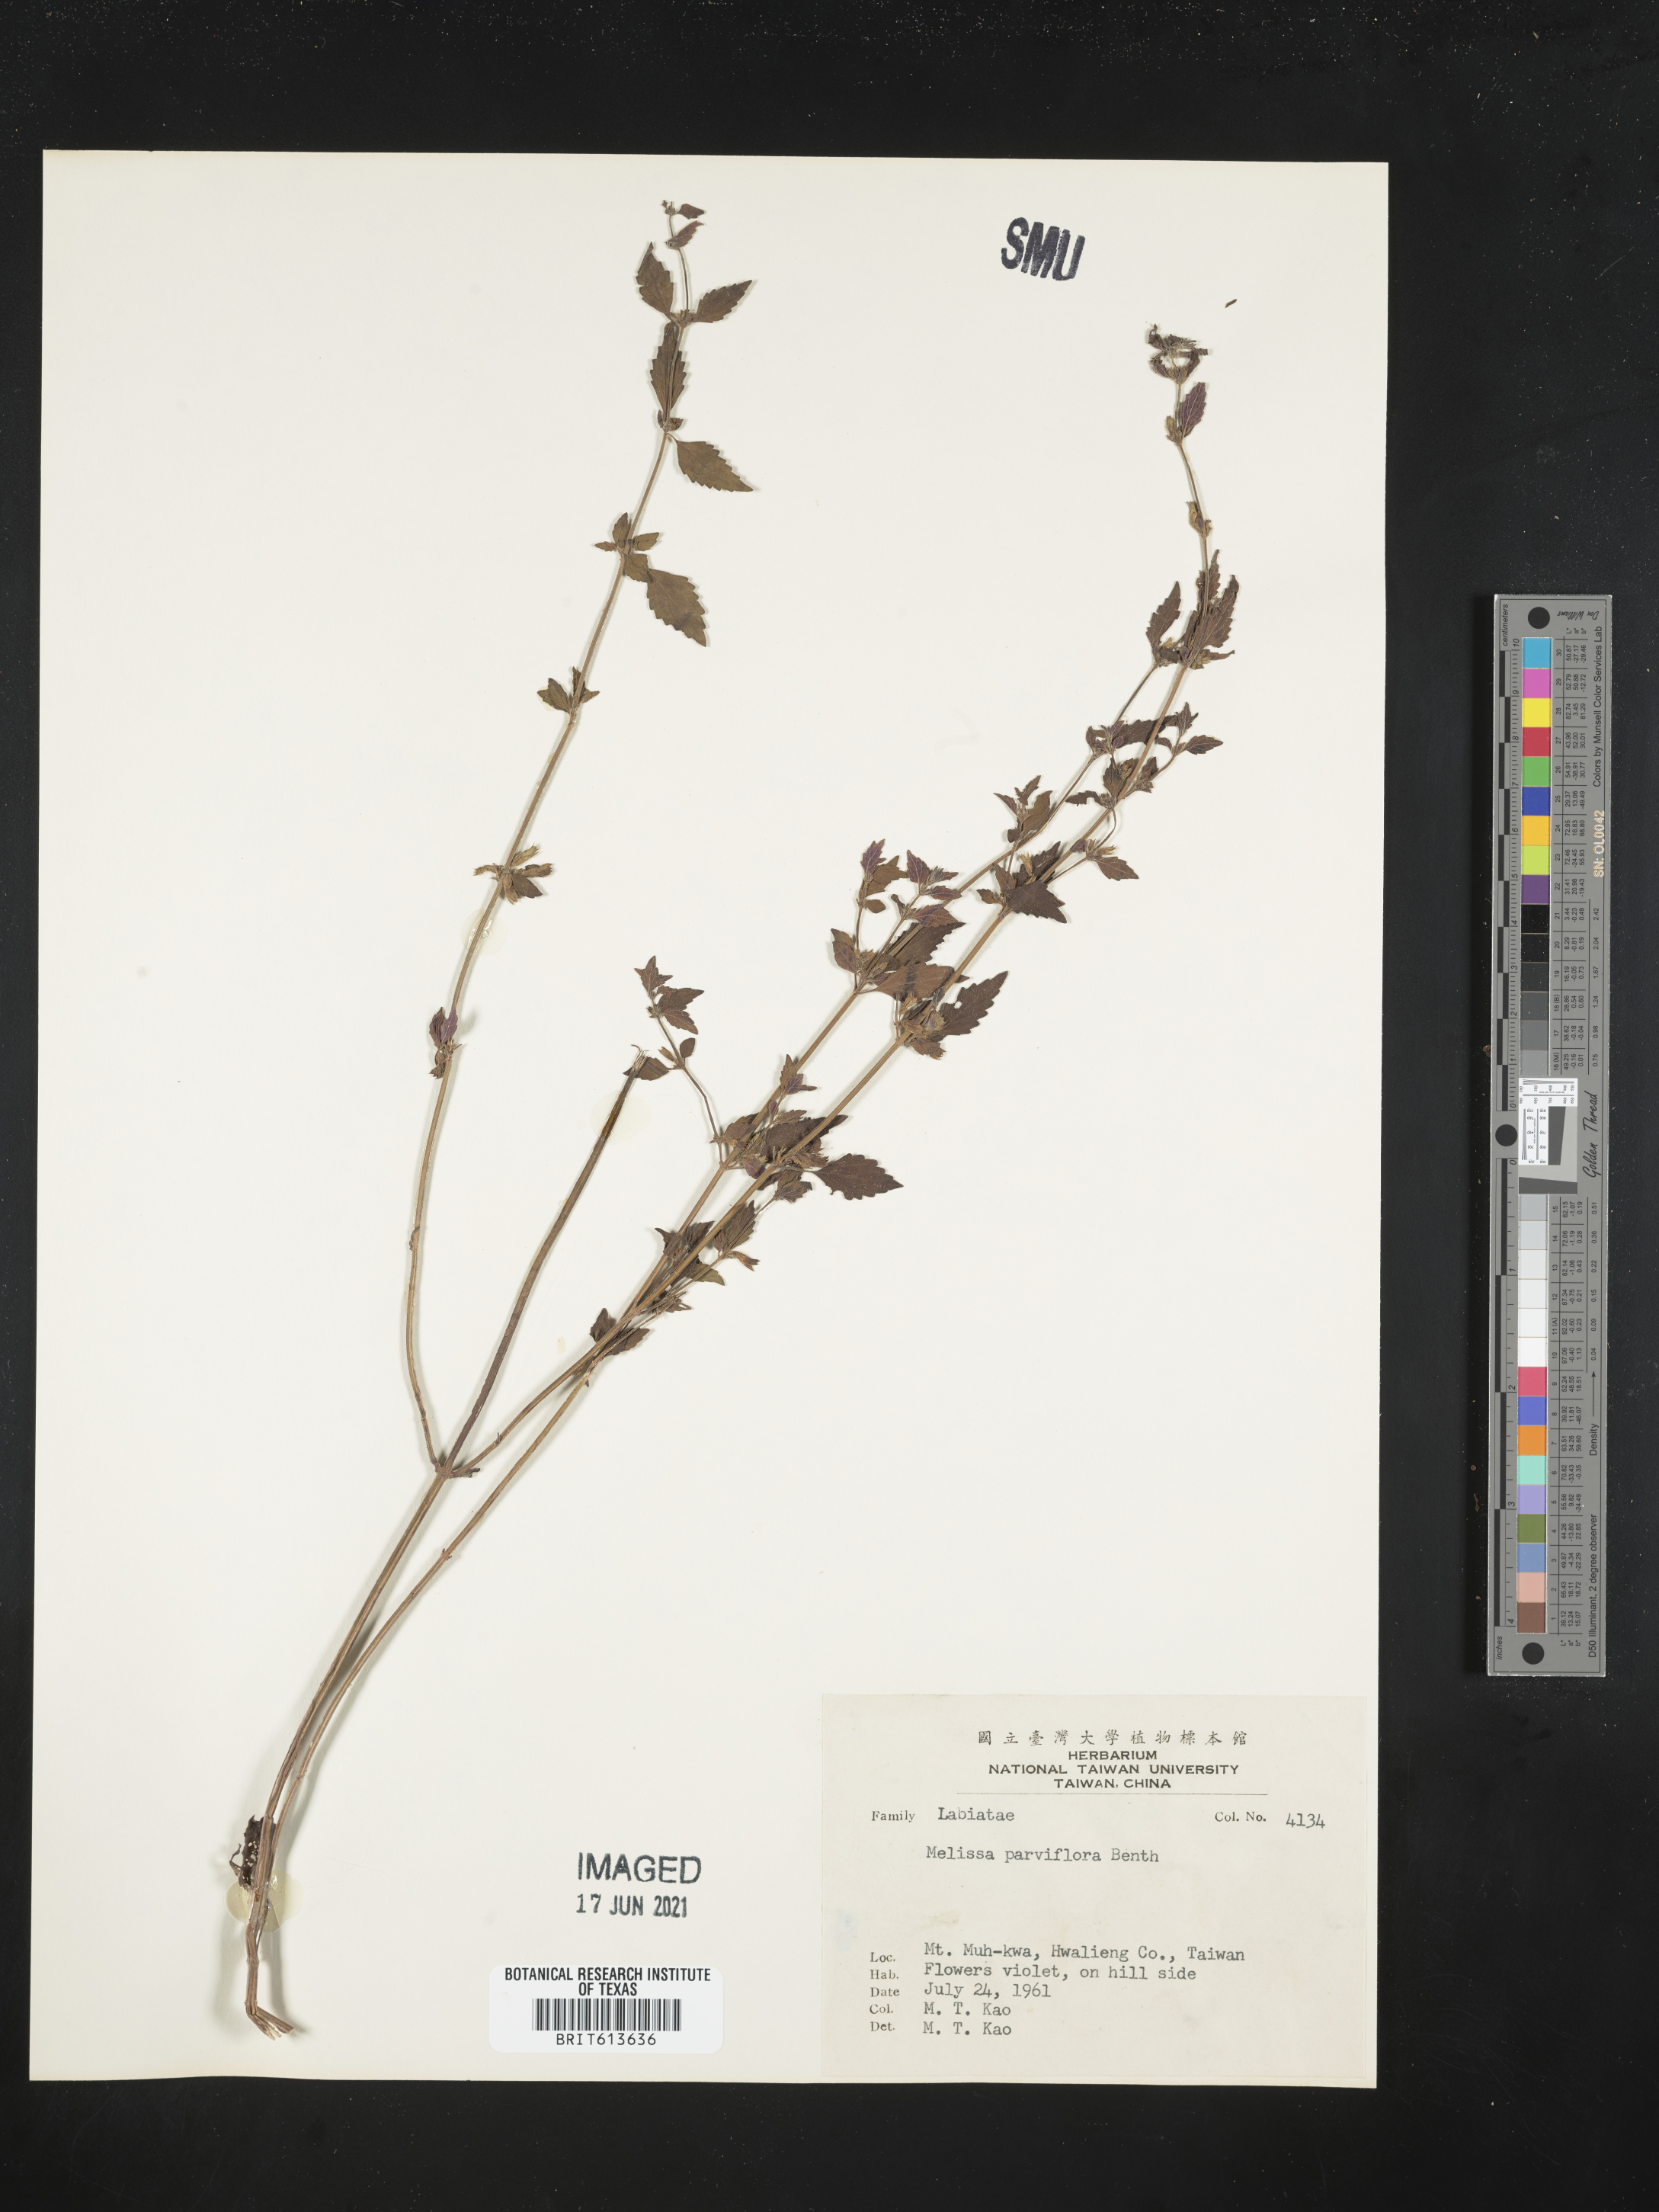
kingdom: Plantae
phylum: Tracheophyta
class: Magnoliopsida
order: Lamiales
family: Lamiaceae
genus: Clinopodium
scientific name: Clinopodium nepeta
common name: Lesser calamint
